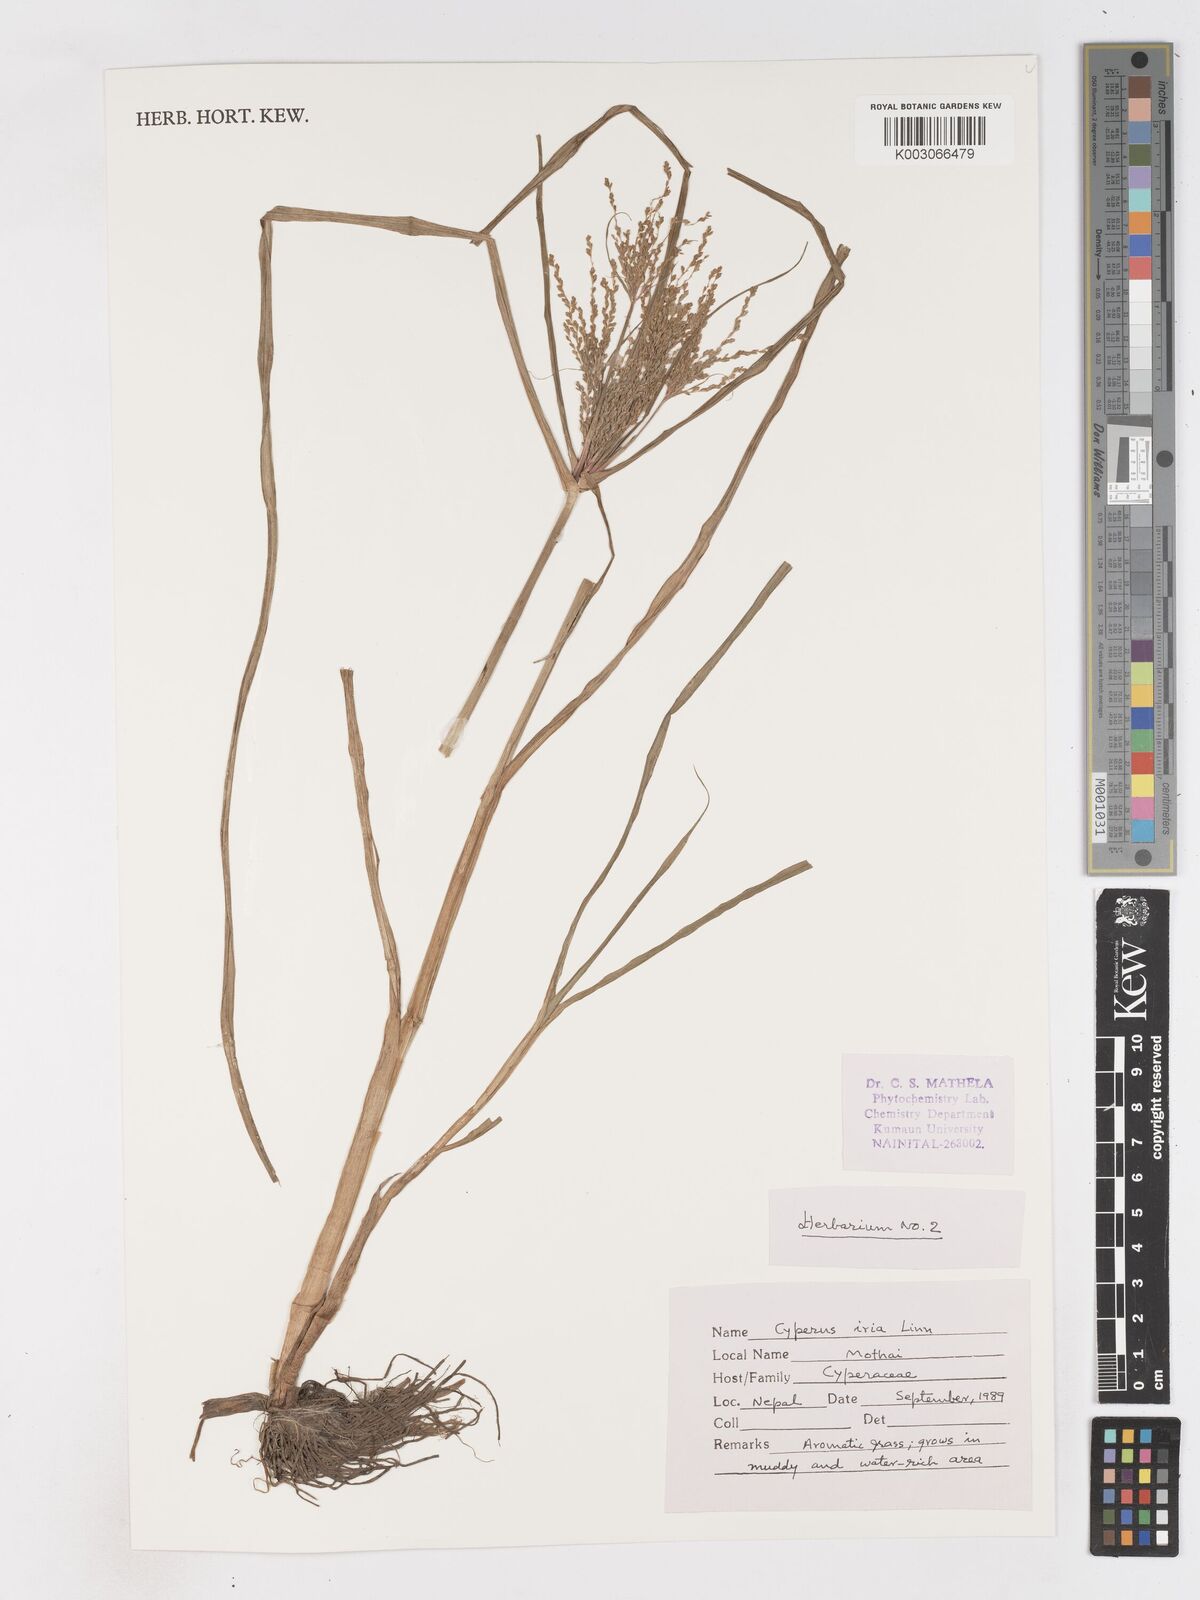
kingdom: Plantae
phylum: Tracheophyta
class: Liliopsida
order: Poales
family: Cyperaceae
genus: Cyperus
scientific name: Cyperus iria
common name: Ricefield flatsedge
